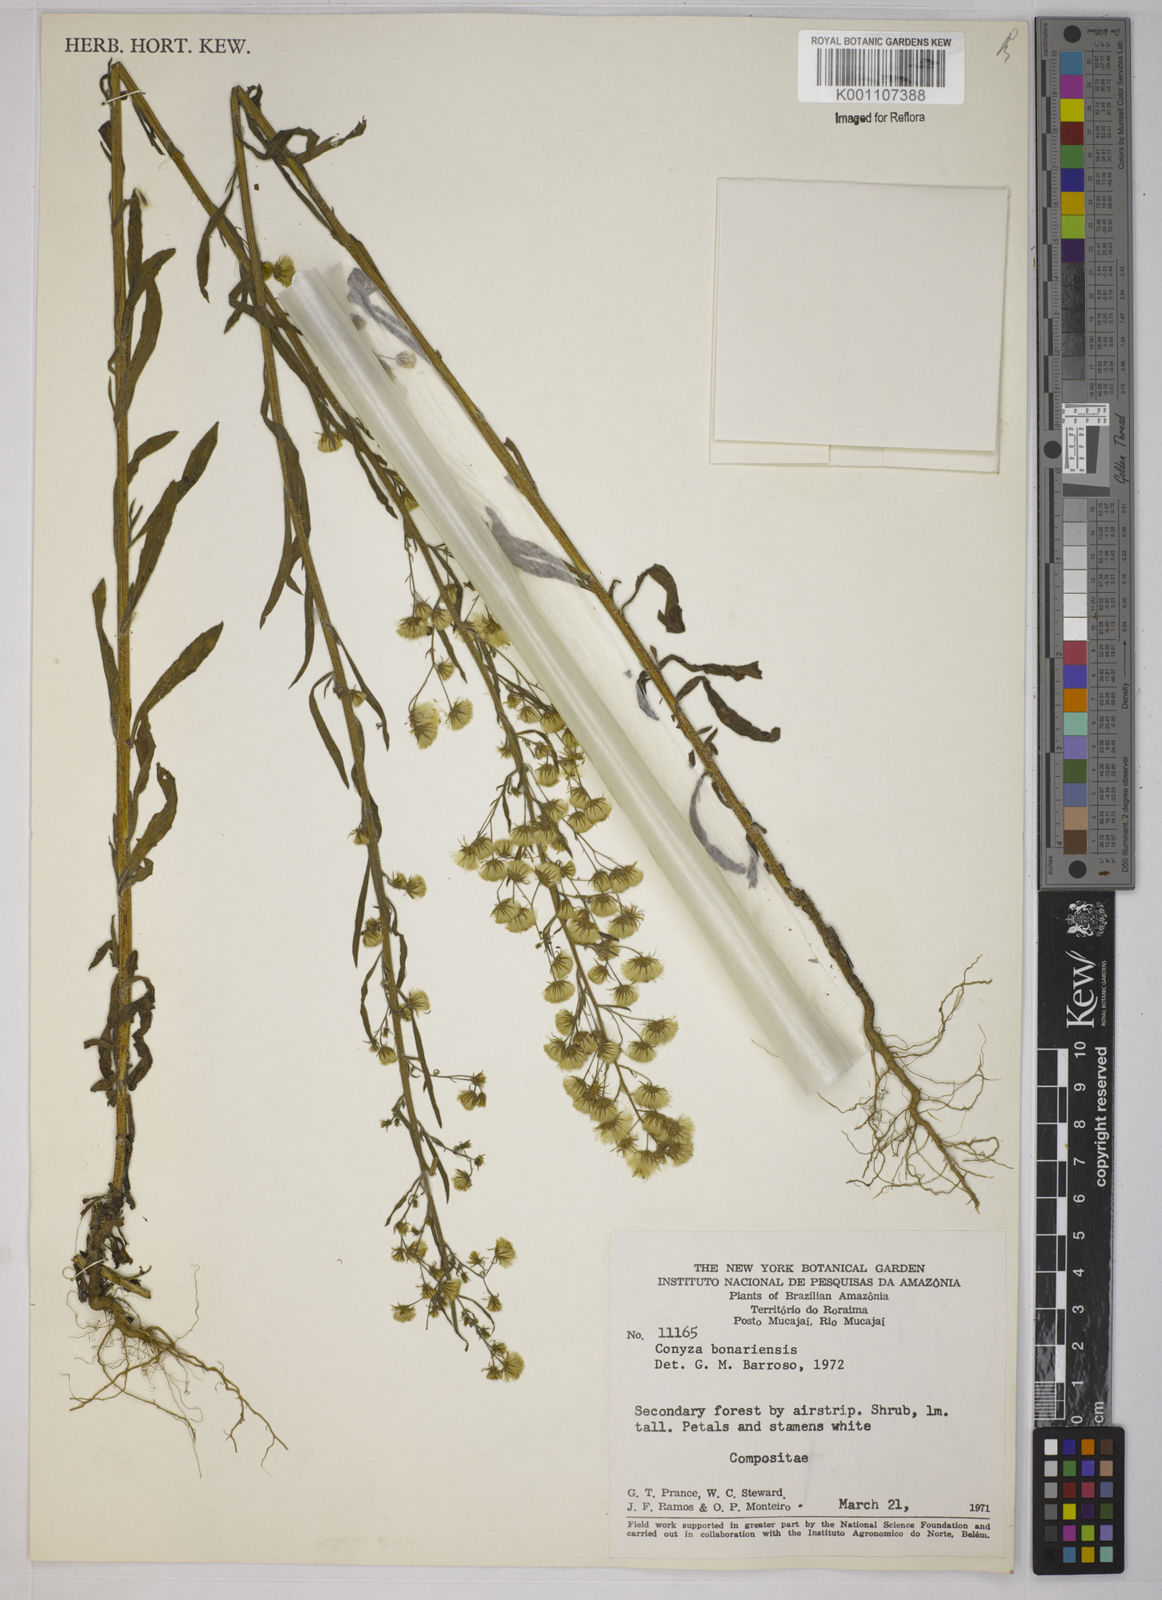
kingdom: Plantae
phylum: Tracheophyta
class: Magnoliopsida
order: Asterales
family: Asteraceae
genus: Erigeron
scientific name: Erigeron sumatrensis
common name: Daisy
